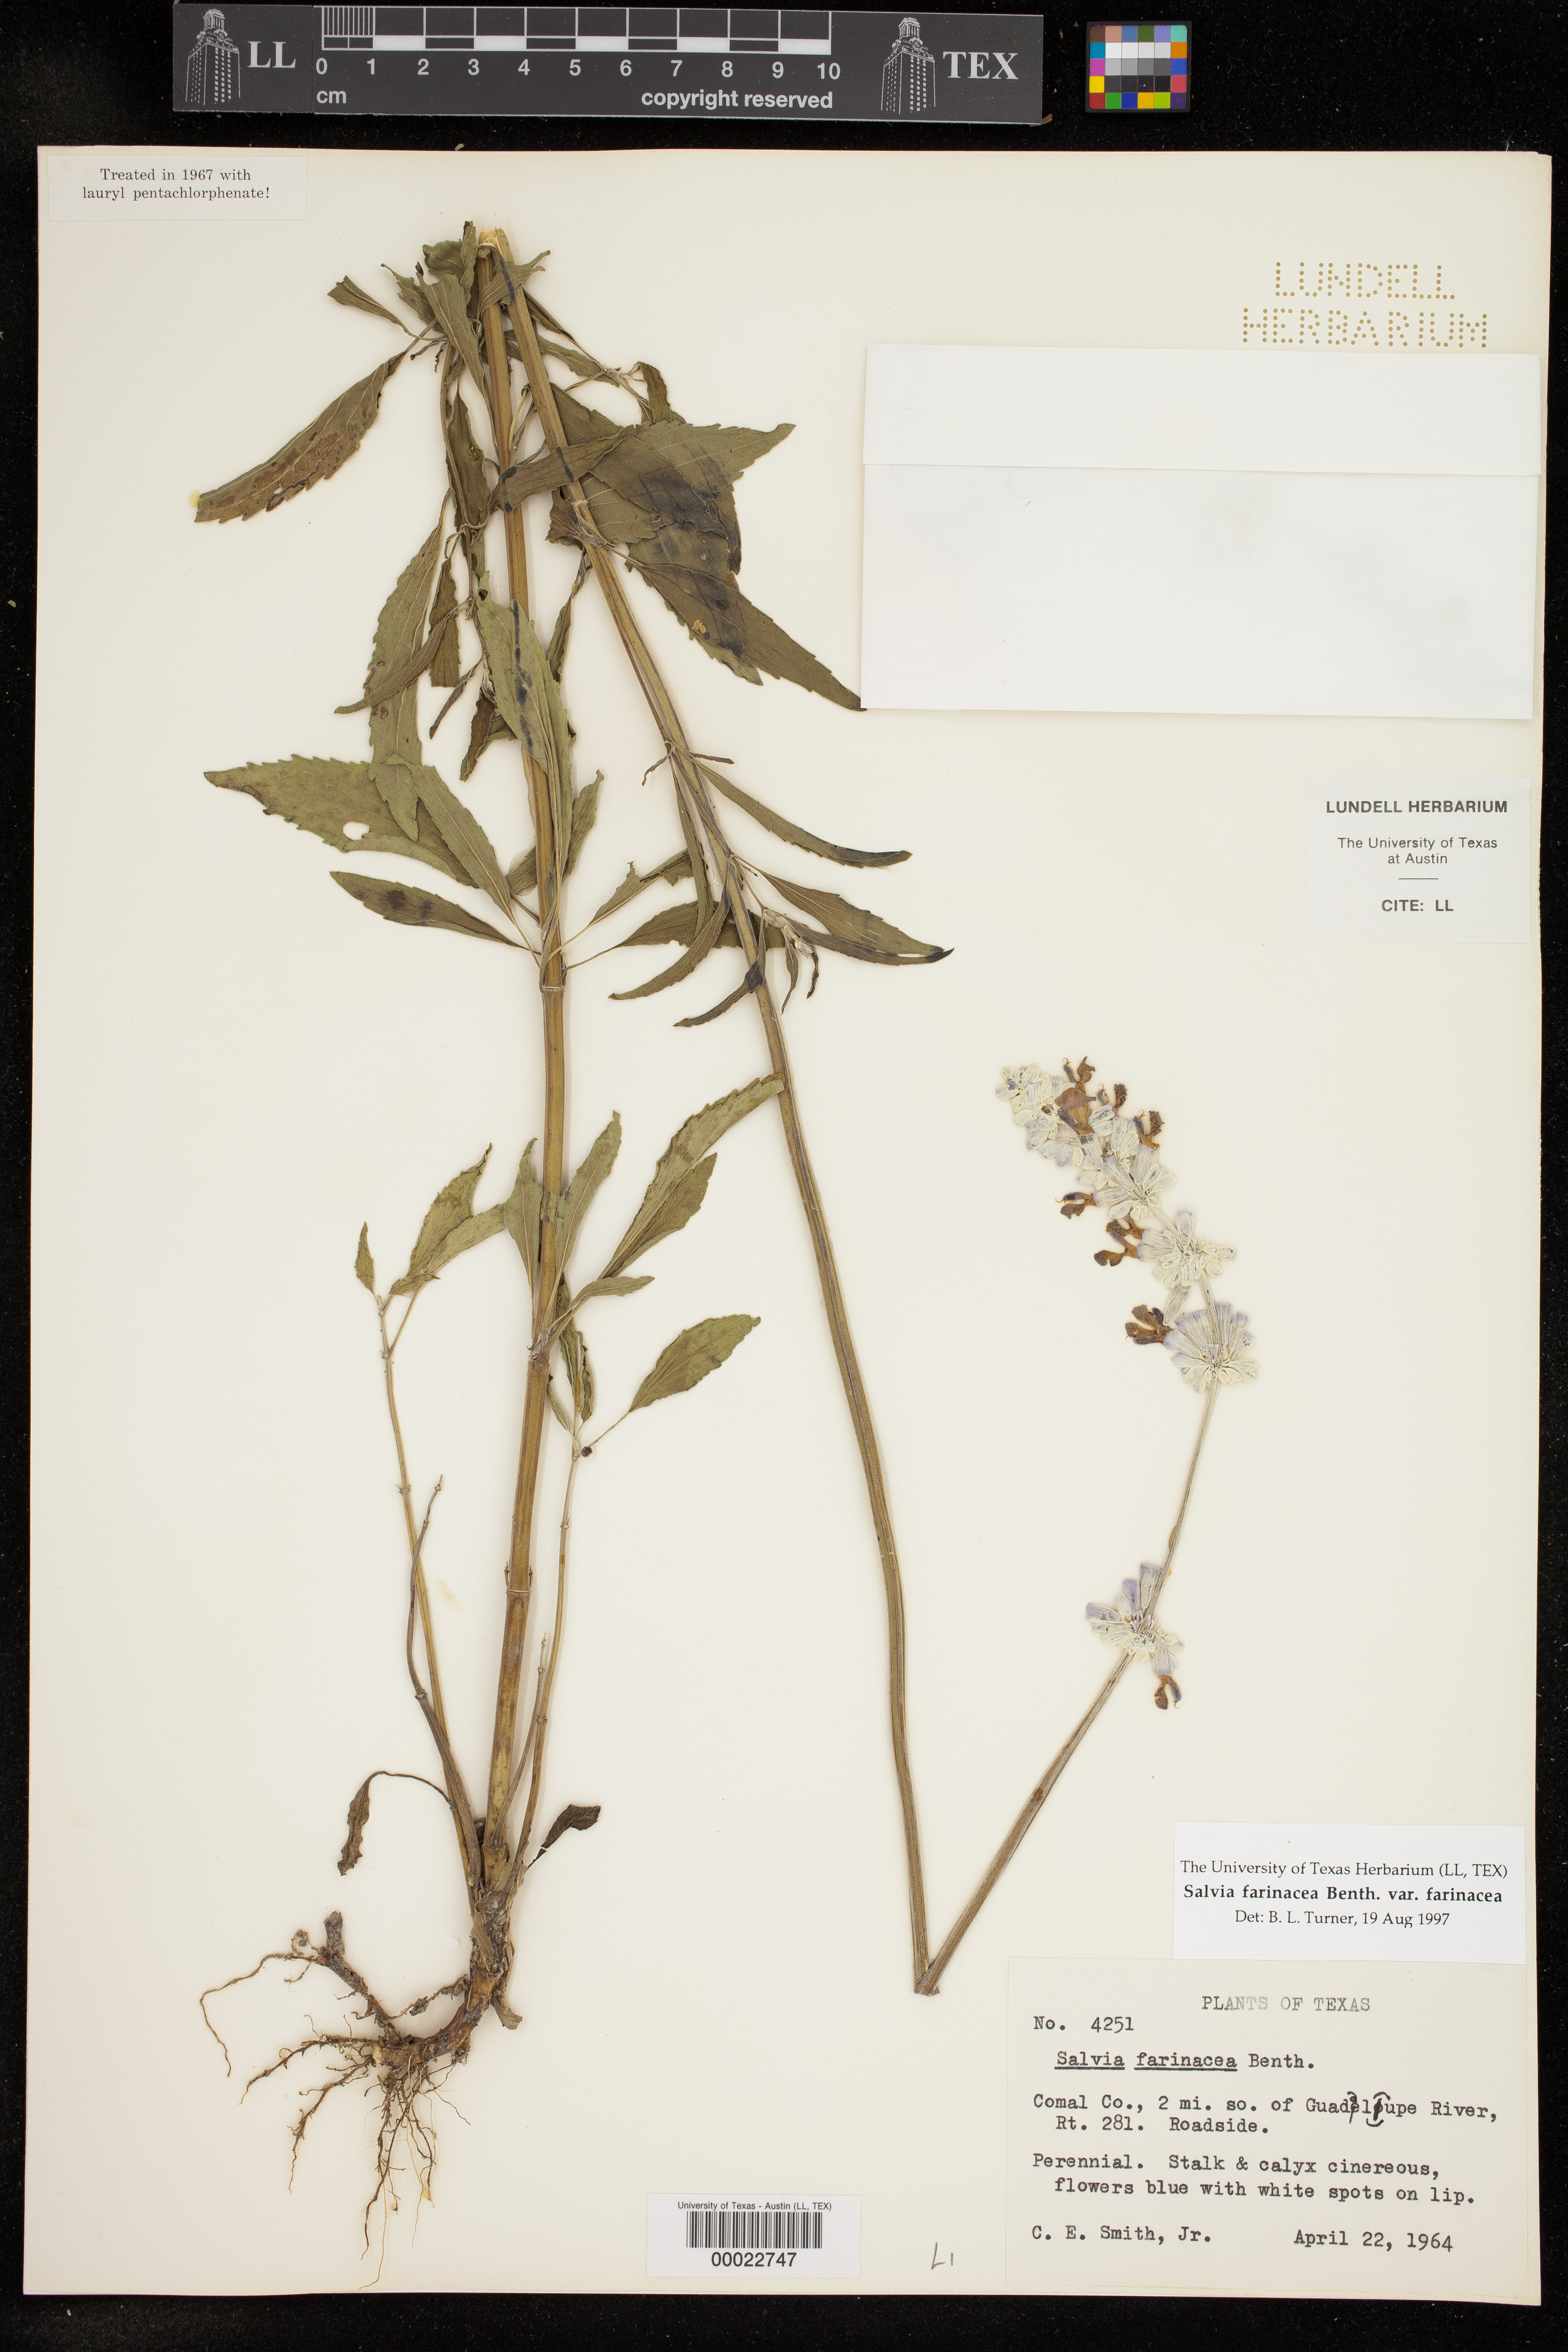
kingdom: Plantae
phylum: Tracheophyta
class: Magnoliopsida
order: Lamiales
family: Lamiaceae
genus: Salvia
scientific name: Salvia farinacea
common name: Mealy sage
